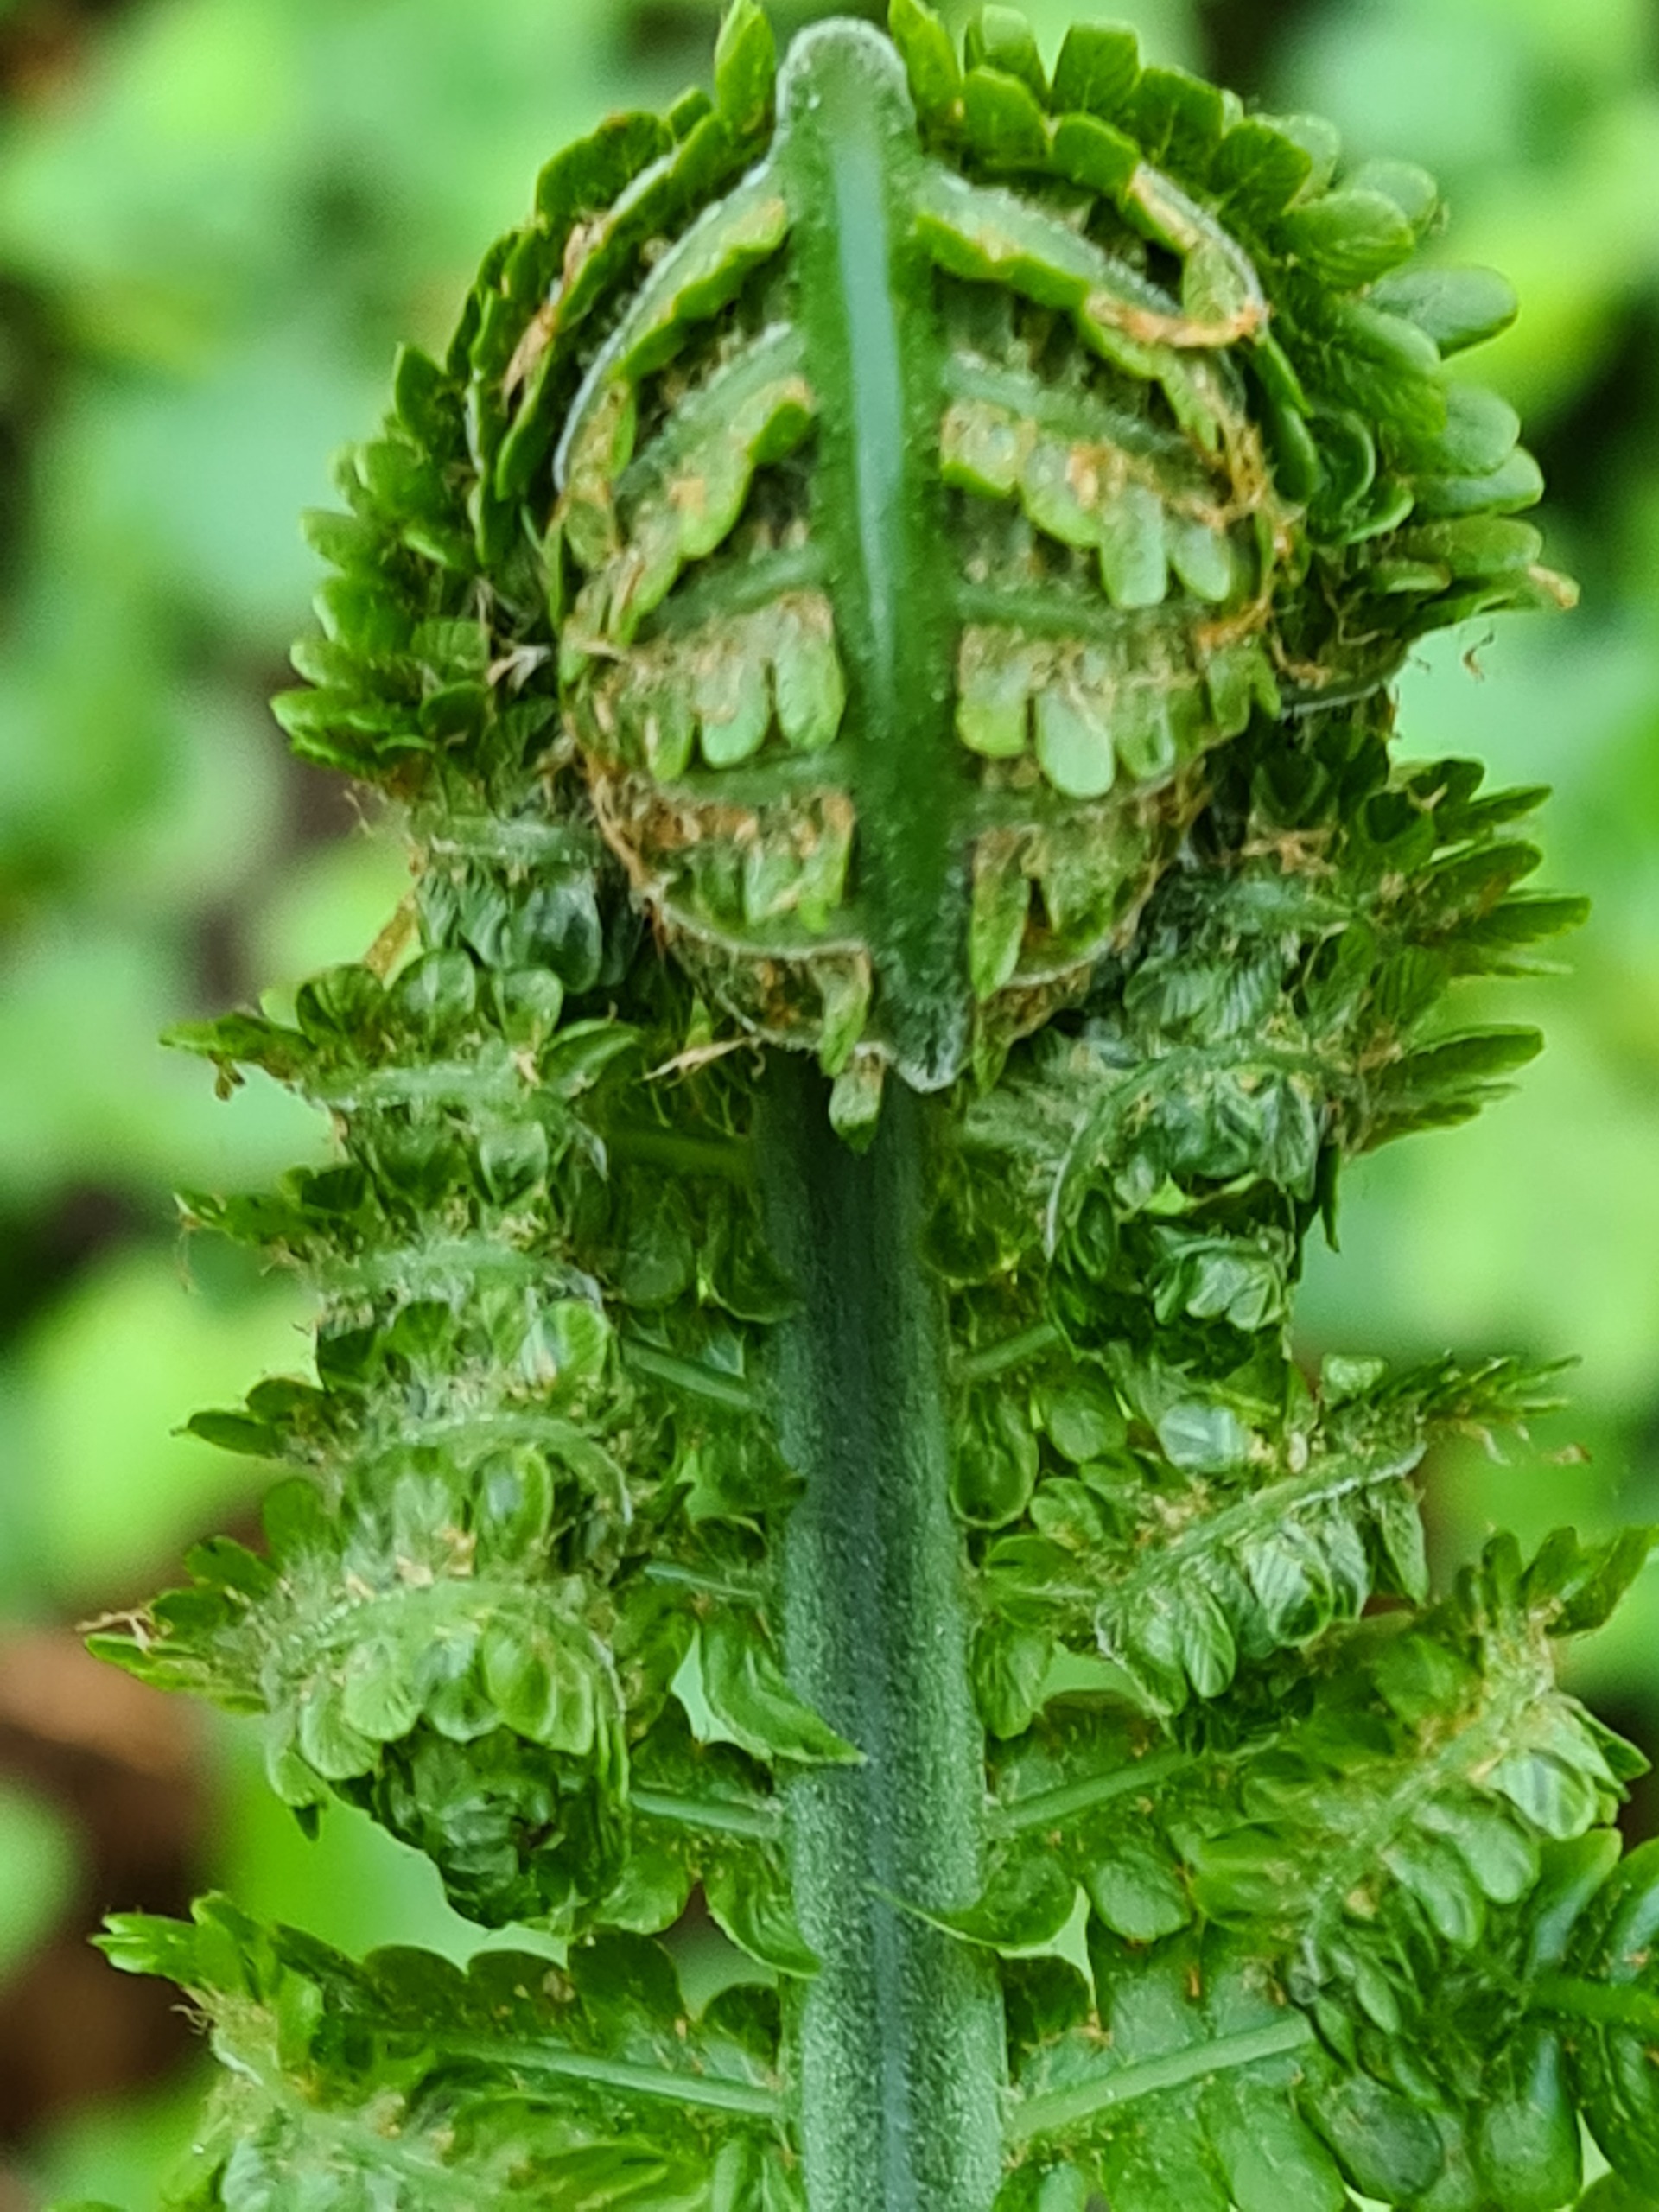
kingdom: Plantae
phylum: Tracheophyta
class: Polypodiopsida
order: Polypodiales
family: Onocleaceae
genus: Matteuccia
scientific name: Matteuccia struthiopteris
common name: Strudsvinge
